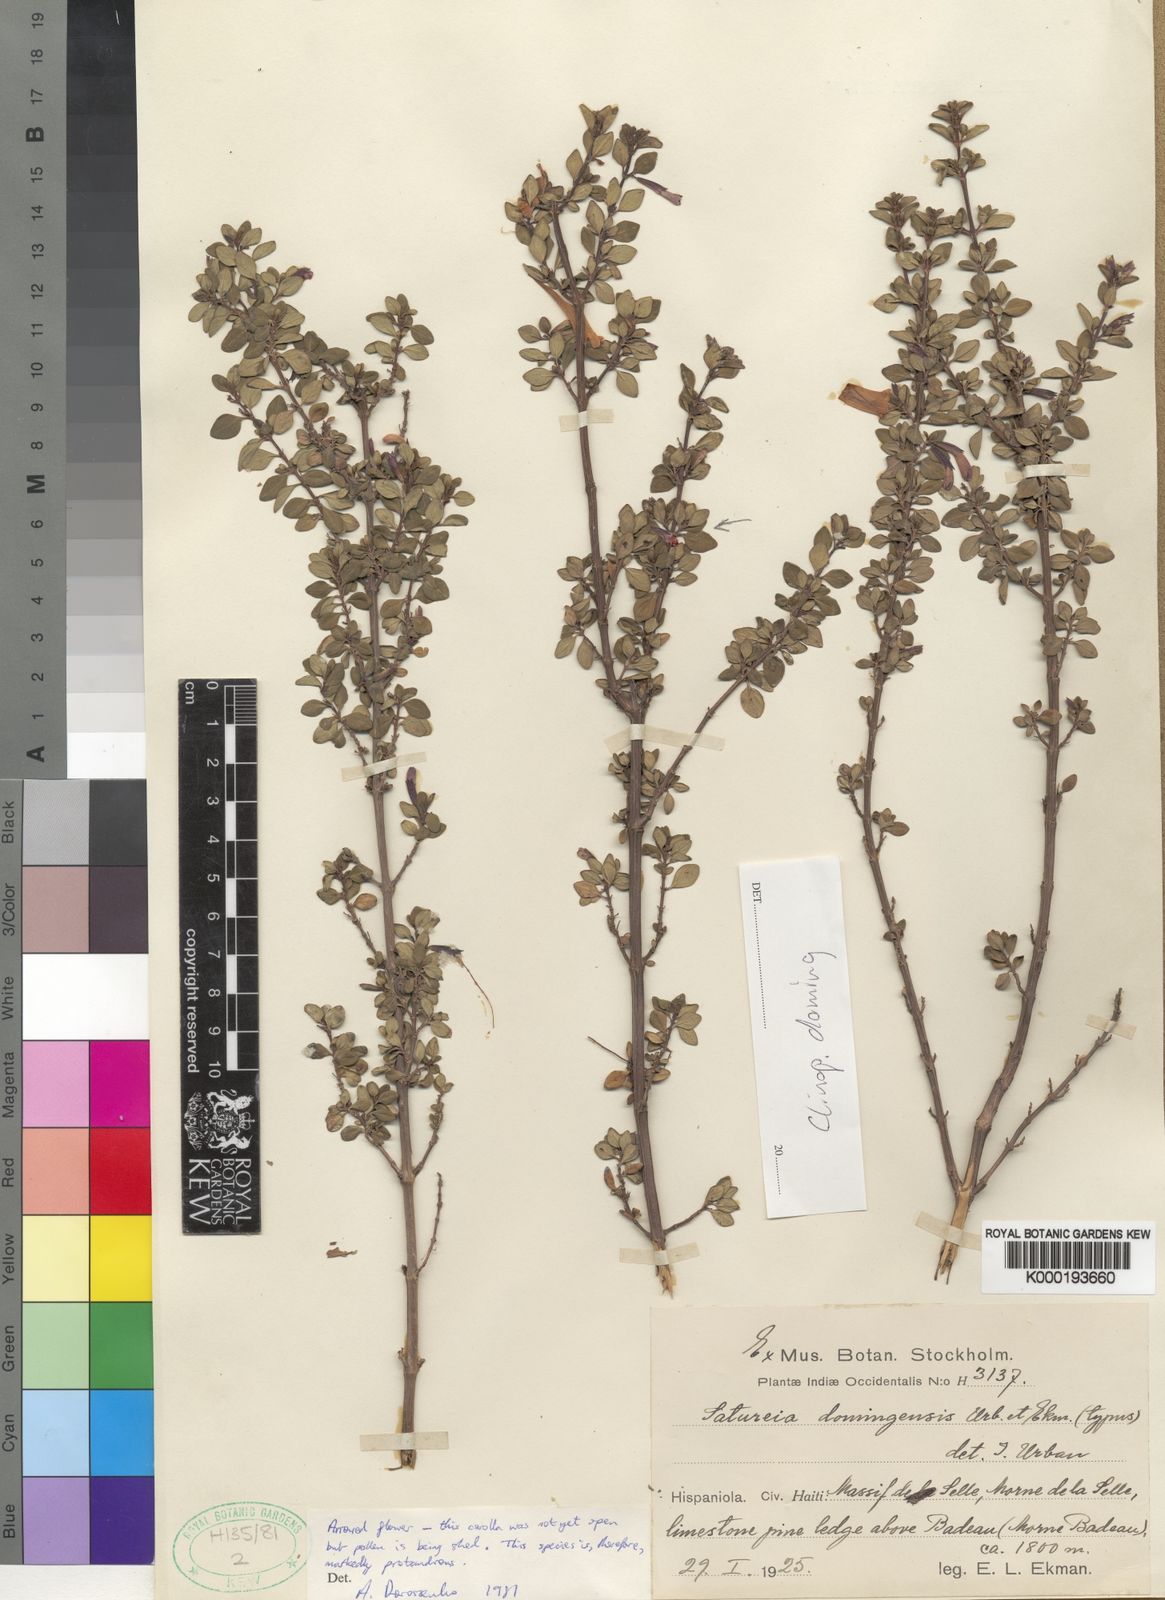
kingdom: Plantae
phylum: Tracheophyta
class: Magnoliopsida
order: Lamiales
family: Lamiaceae
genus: Clinopodium
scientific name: Clinopodium domingense
